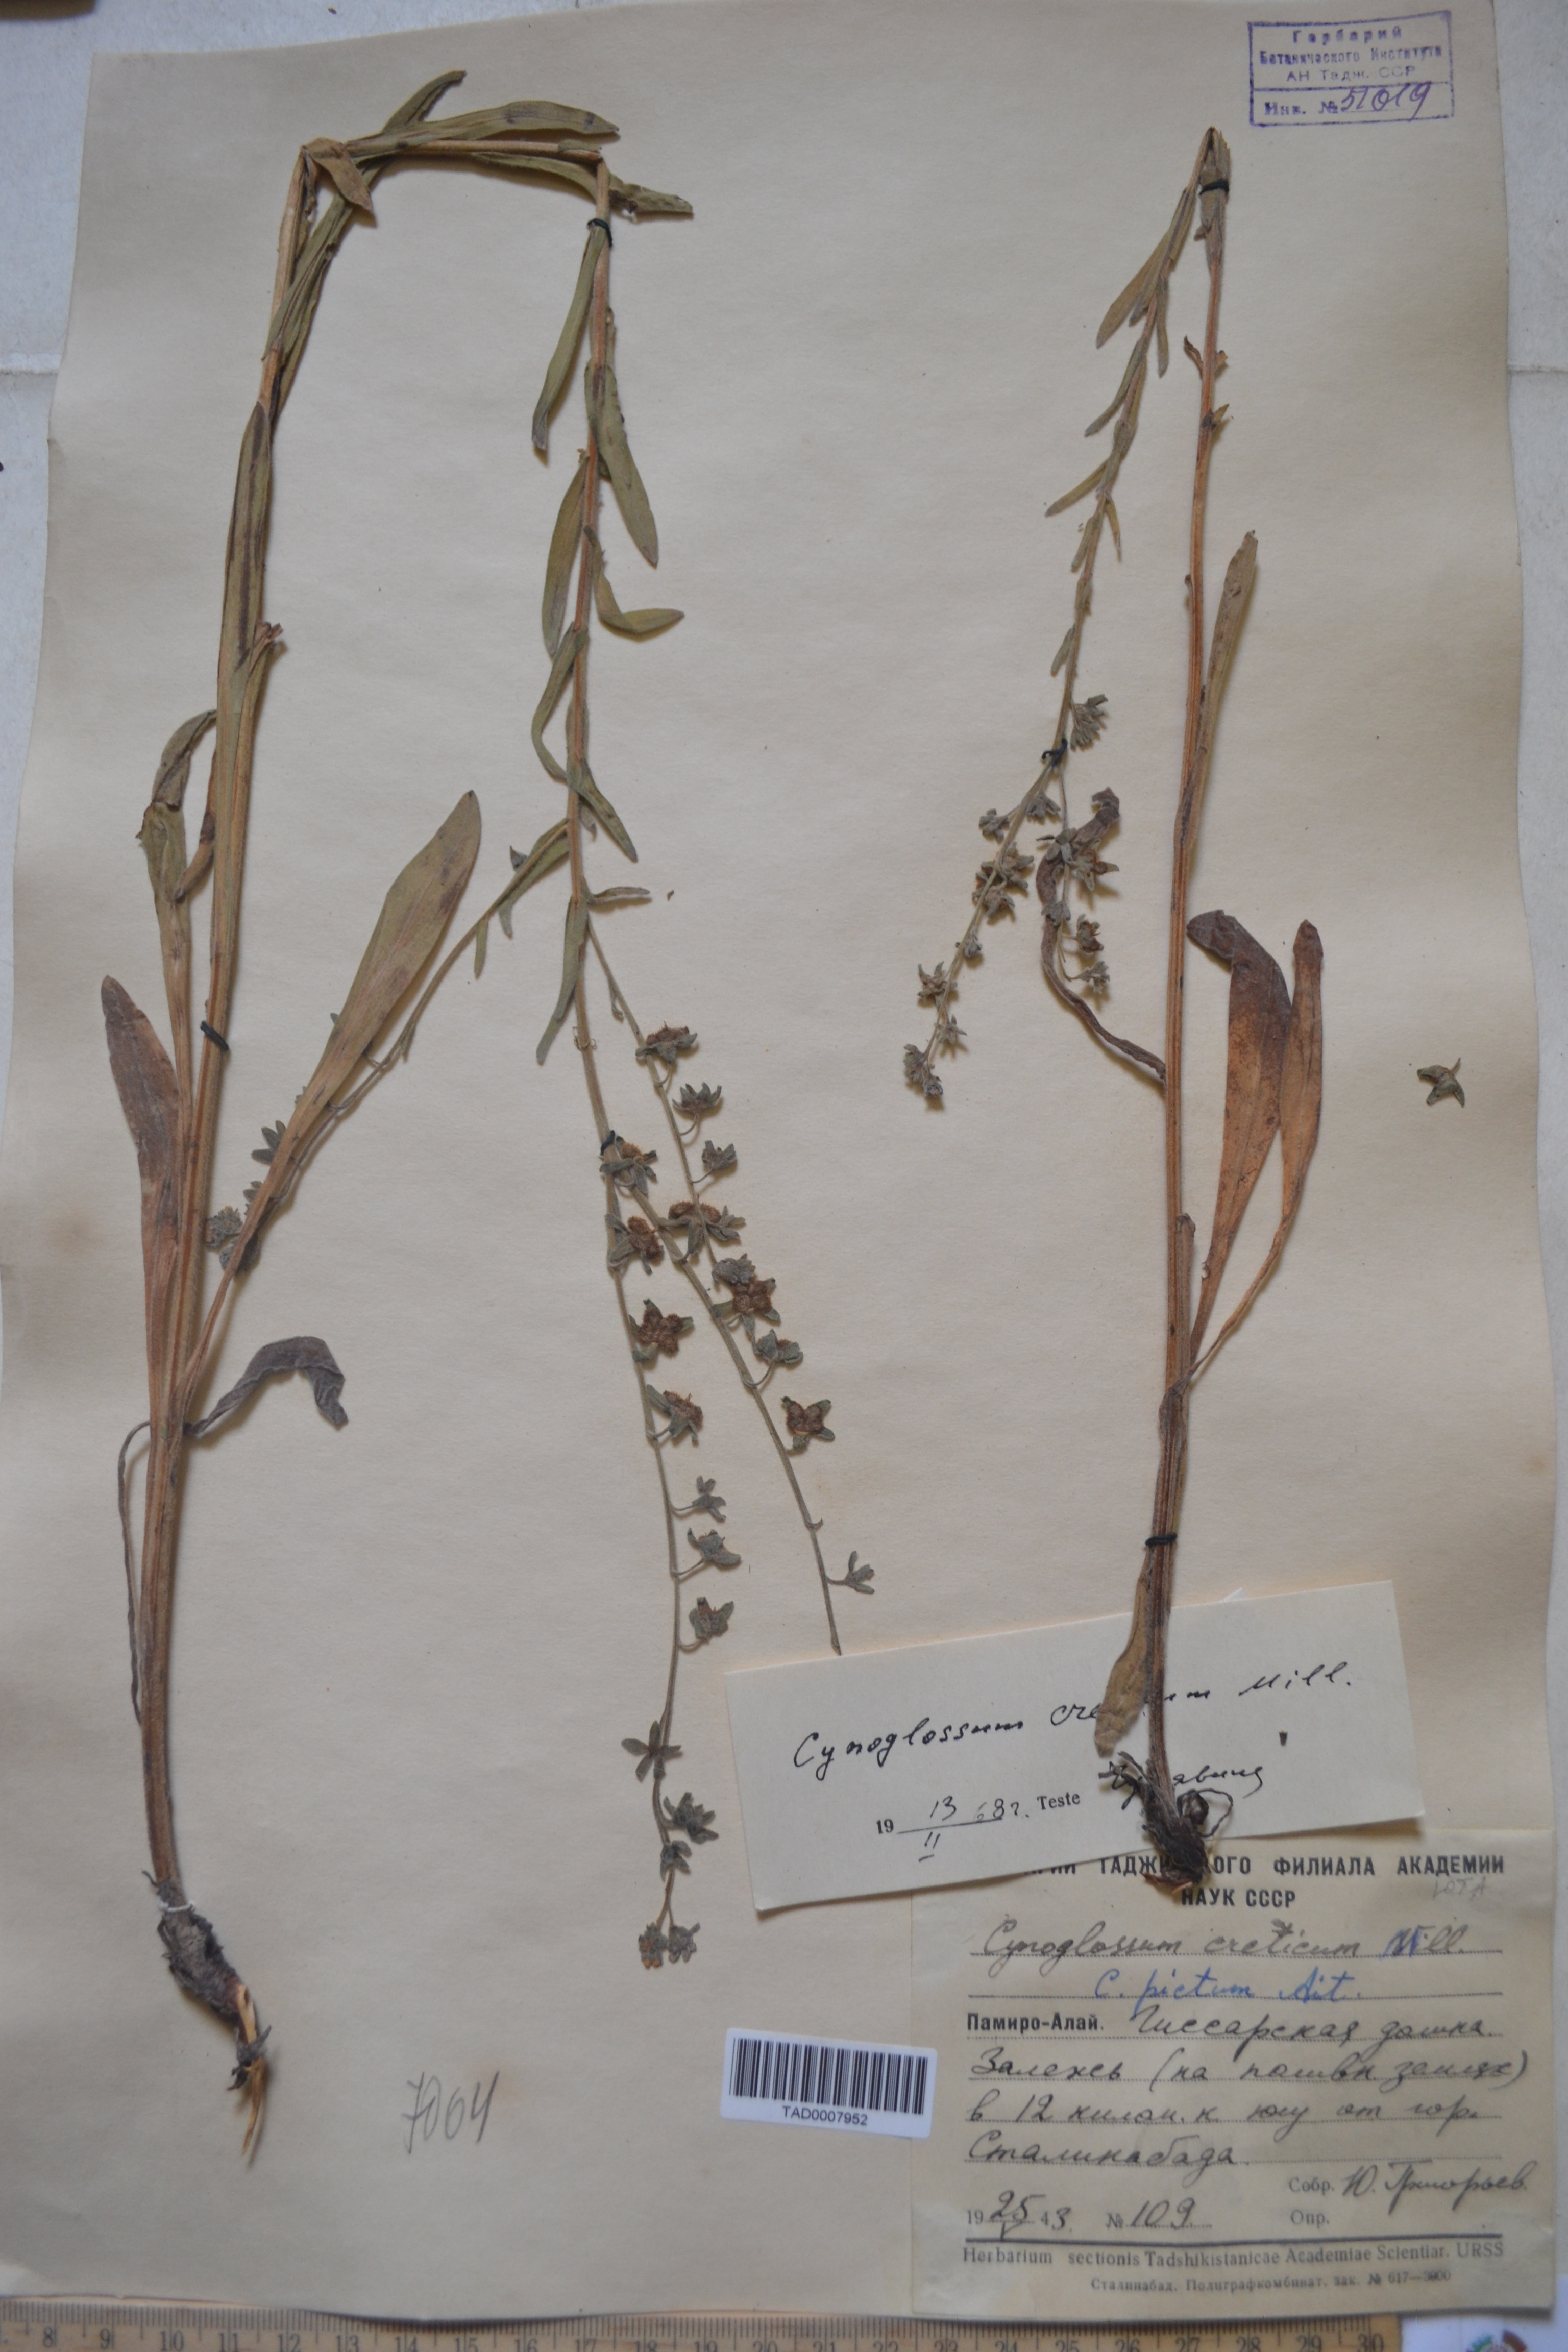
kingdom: Plantae
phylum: Tracheophyta
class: Magnoliopsida
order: Boraginales
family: Boraginaceae
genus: Cynoglossum
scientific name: Cynoglossum creticum
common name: Blue hound's tongue
